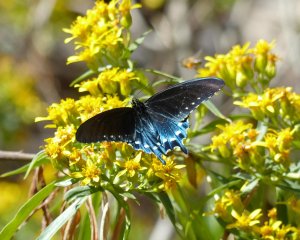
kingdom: Animalia
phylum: Arthropoda
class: Insecta
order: Lepidoptera
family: Papilionidae
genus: Battus
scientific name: Battus philenor
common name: Pipevine Swallowtail
